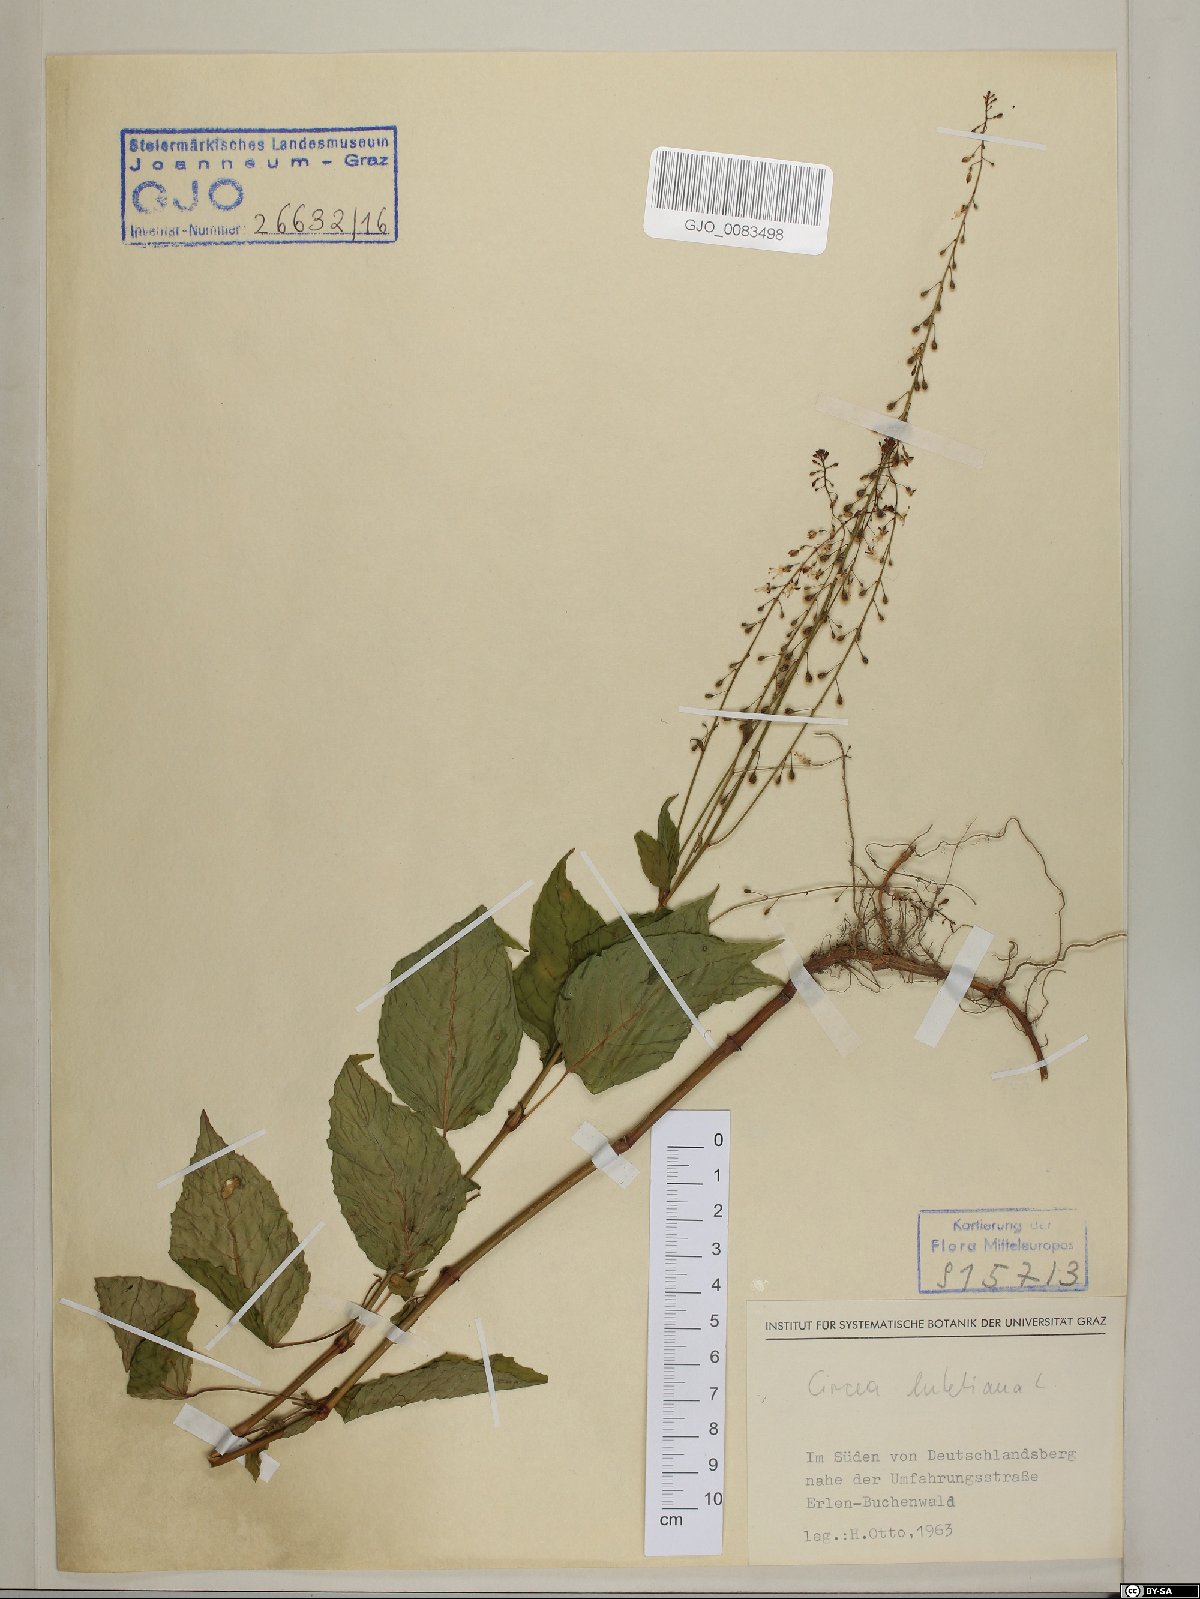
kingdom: Plantae
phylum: Tracheophyta
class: Magnoliopsida
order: Myrtales
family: Onagraceae
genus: Circaea
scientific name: Circaea lutetiana
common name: Enchanter's-nightshade
